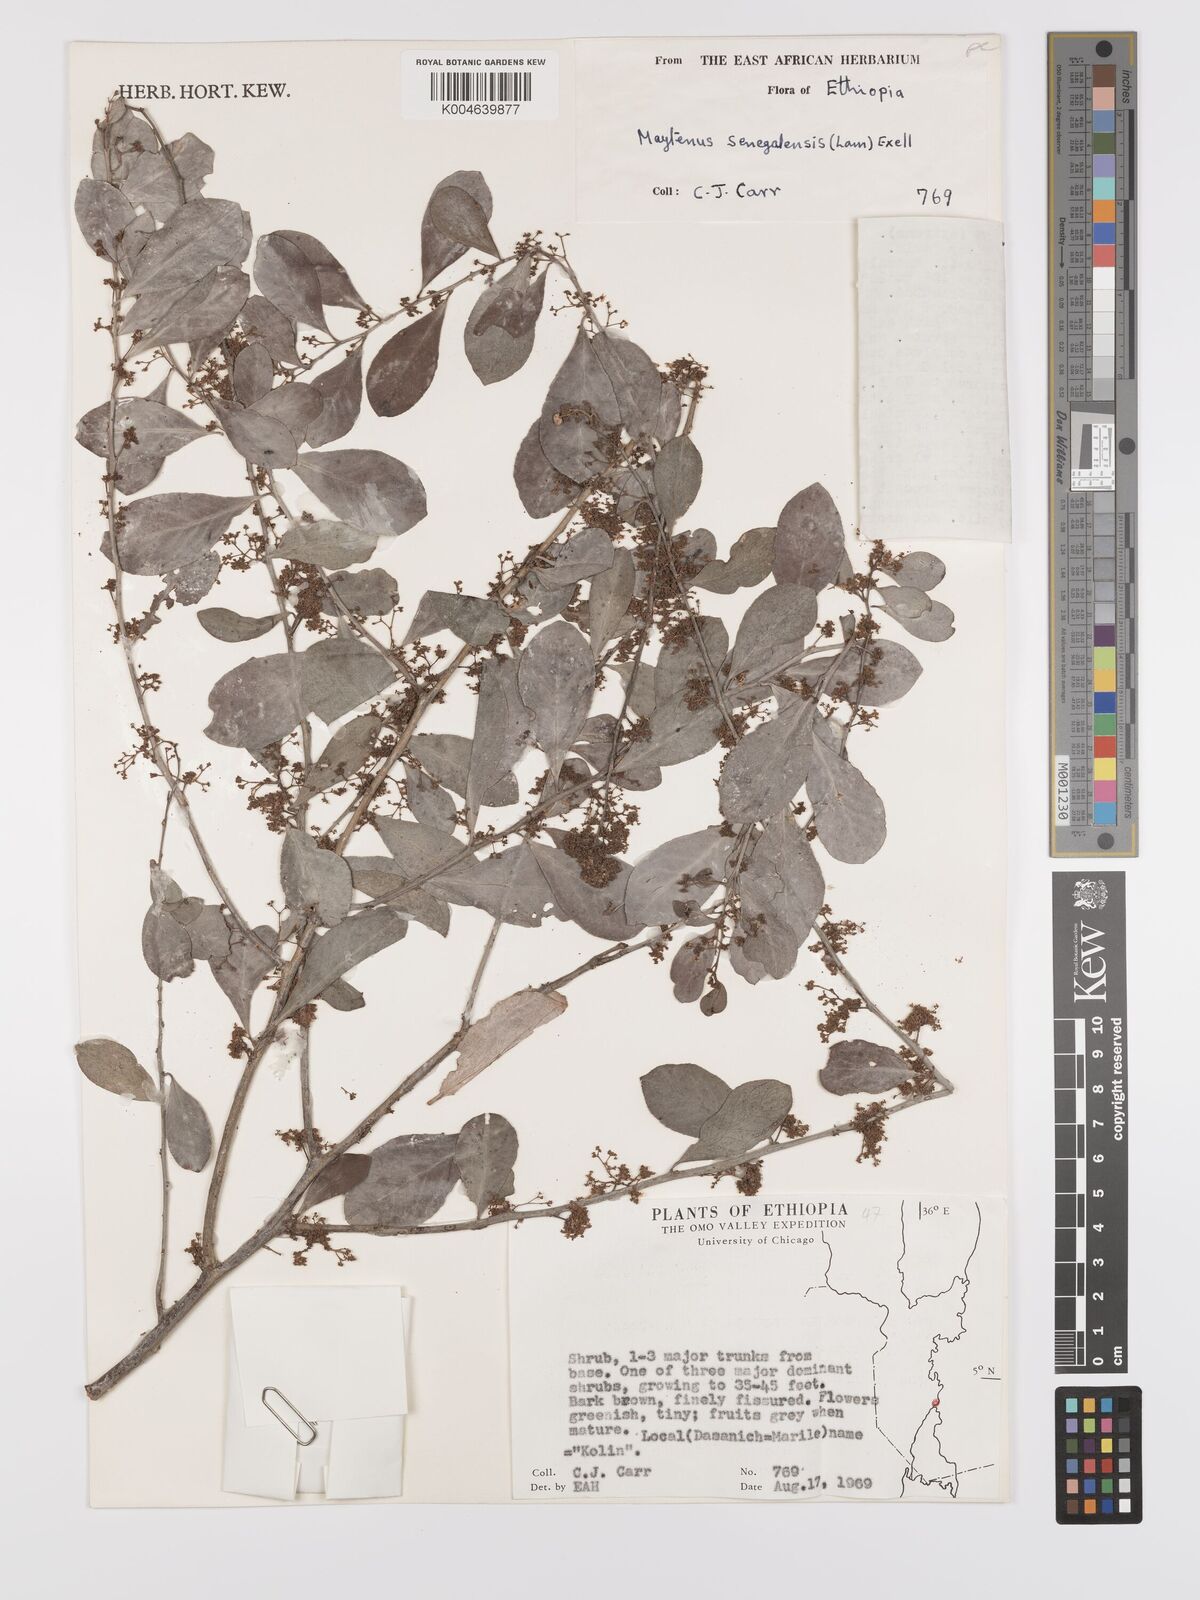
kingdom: Plantae
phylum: Tracheophyta
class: Magnoliopsida
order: Celastrales
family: Celastraceae
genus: Gymnosporia
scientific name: Gymnosporia senegalensis
